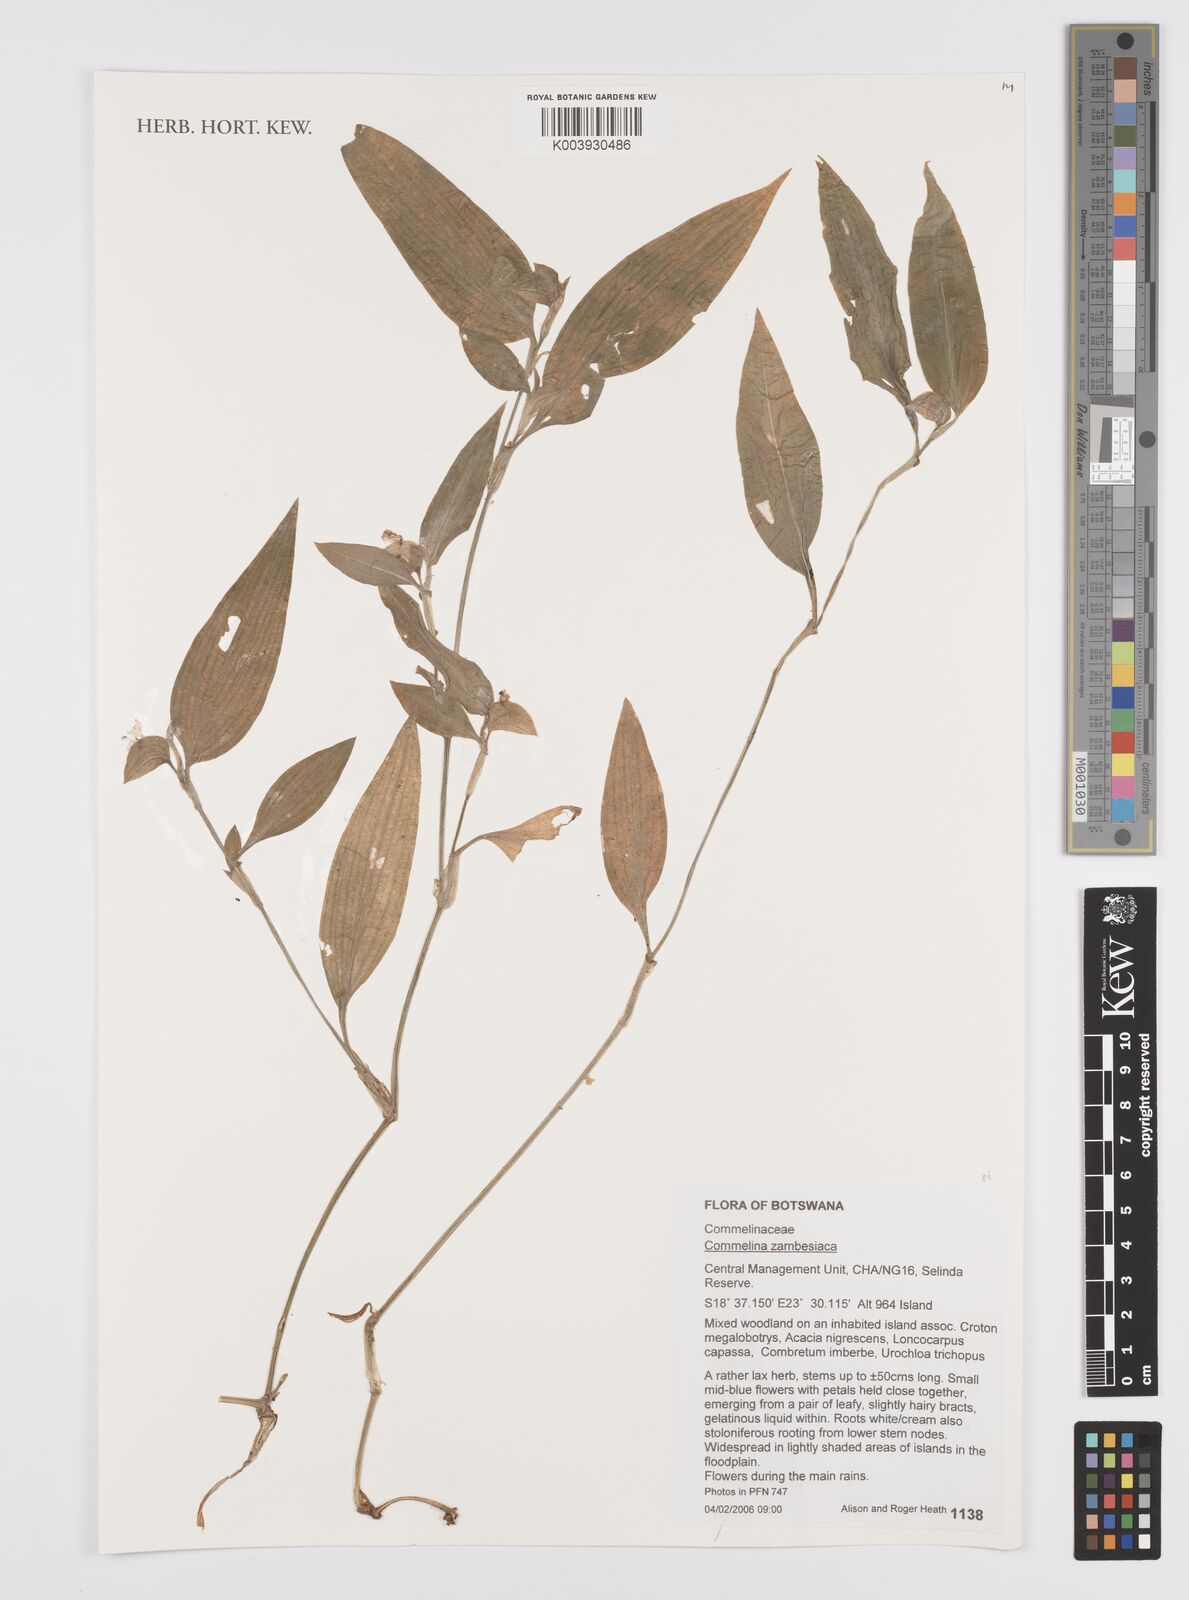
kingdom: Plantae
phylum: Tracheophyta
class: Liliopsida
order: Commelinales
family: Commelinaceae
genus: Commelina
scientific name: Commelina zambesica
